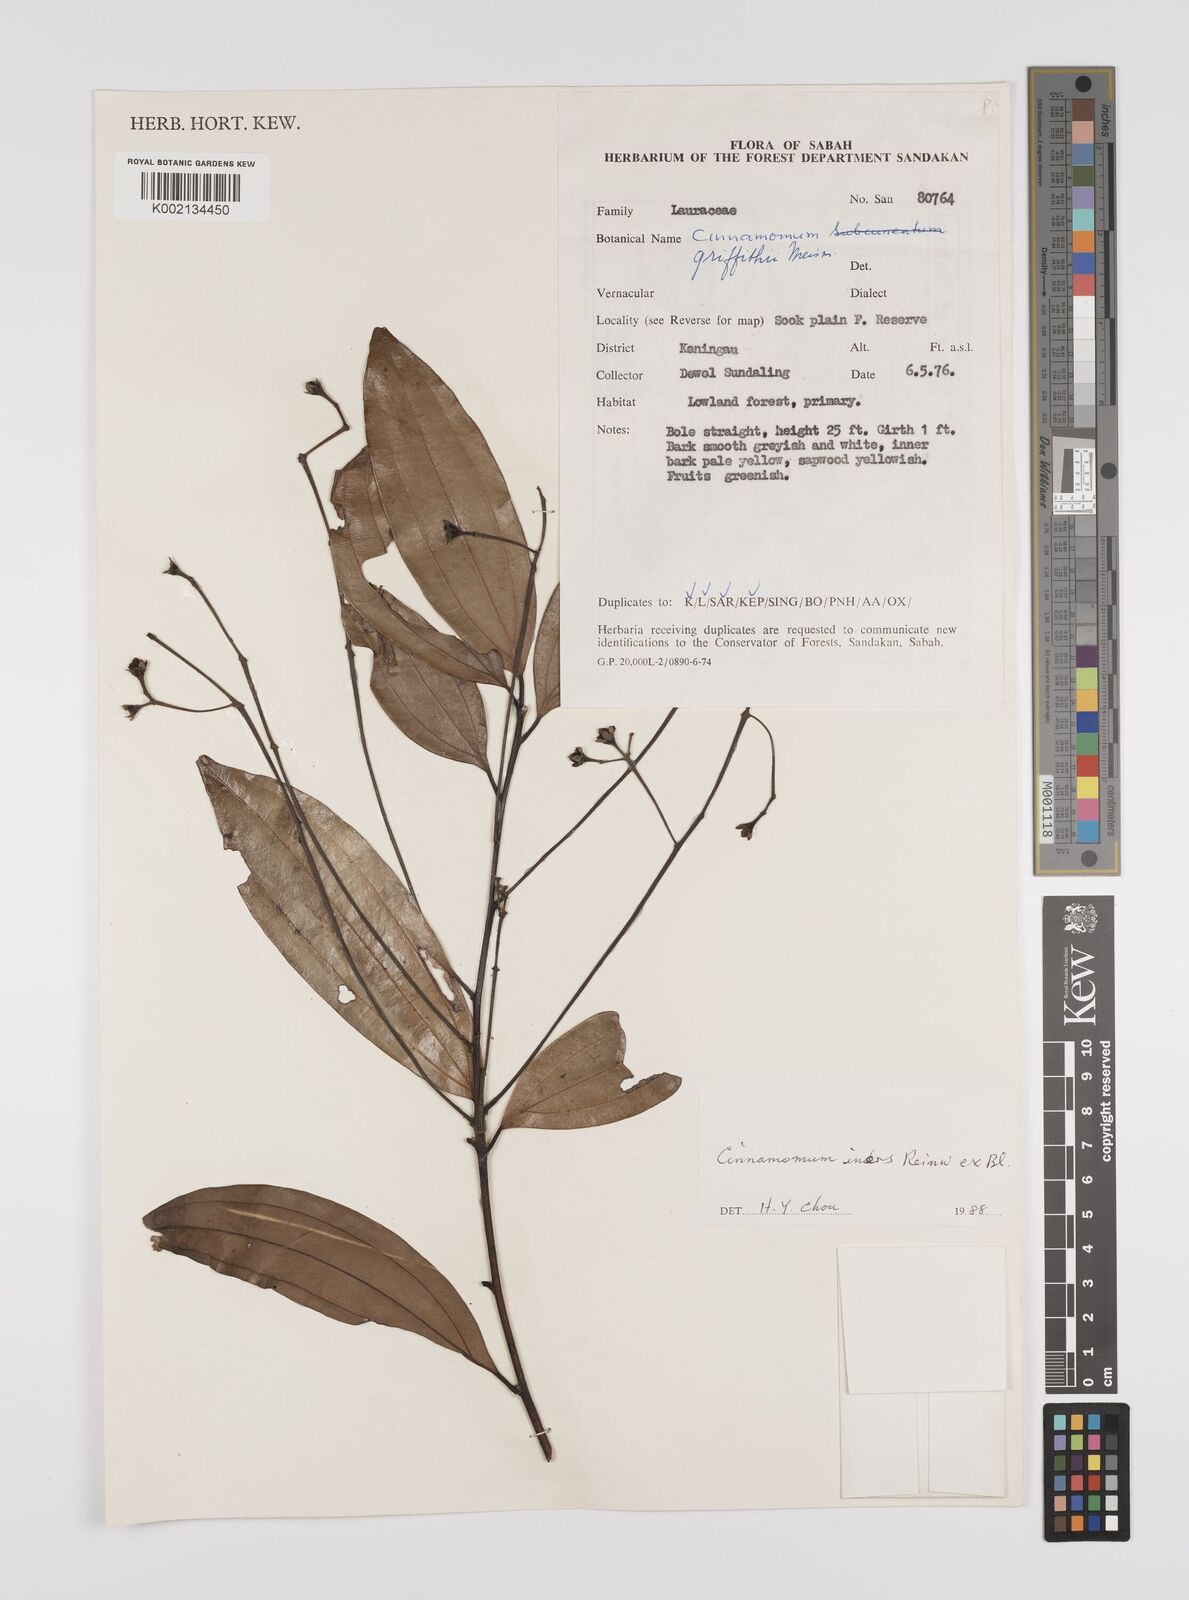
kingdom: Plantae
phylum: Tracheophyta
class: Magnoliopsida
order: Laurales
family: Lauraceae
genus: Cinnamomum
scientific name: Cinnamomum iners
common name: Wild cinnamon
